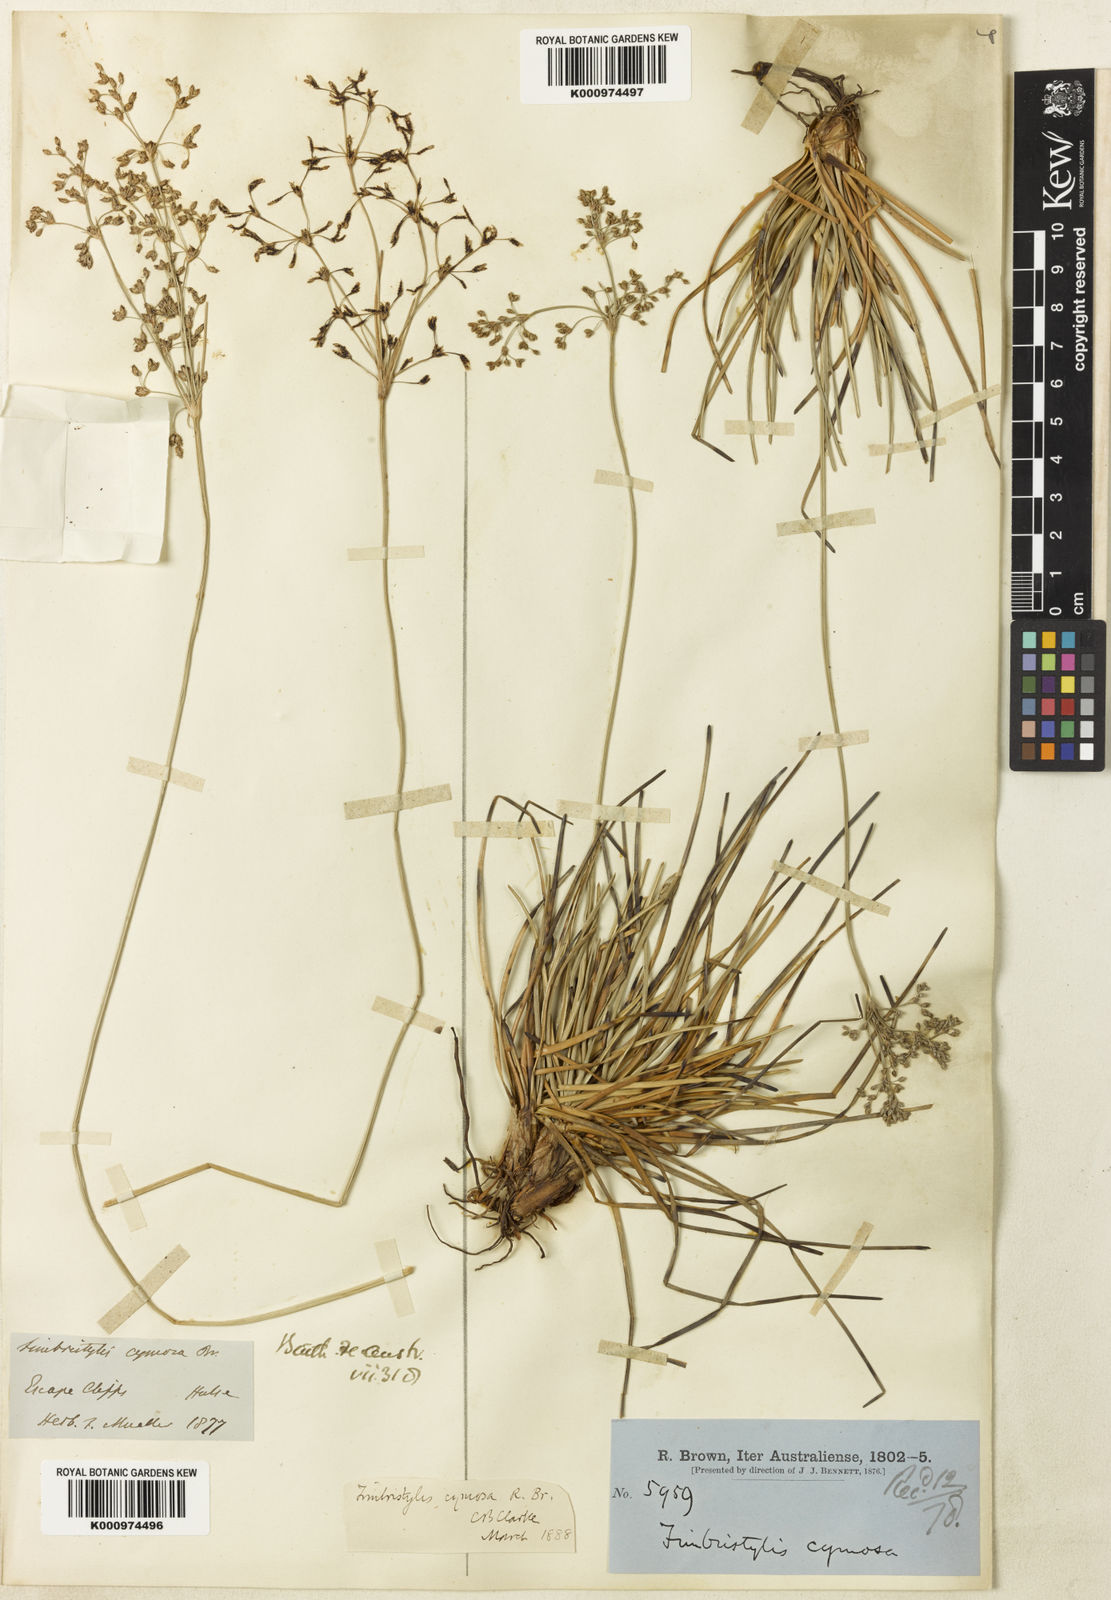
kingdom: Plantae
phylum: Tracheophyta
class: Liliopsida
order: Poales
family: Cyperaceae
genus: Fimbristylis
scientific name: Fimbristylis cymosa
